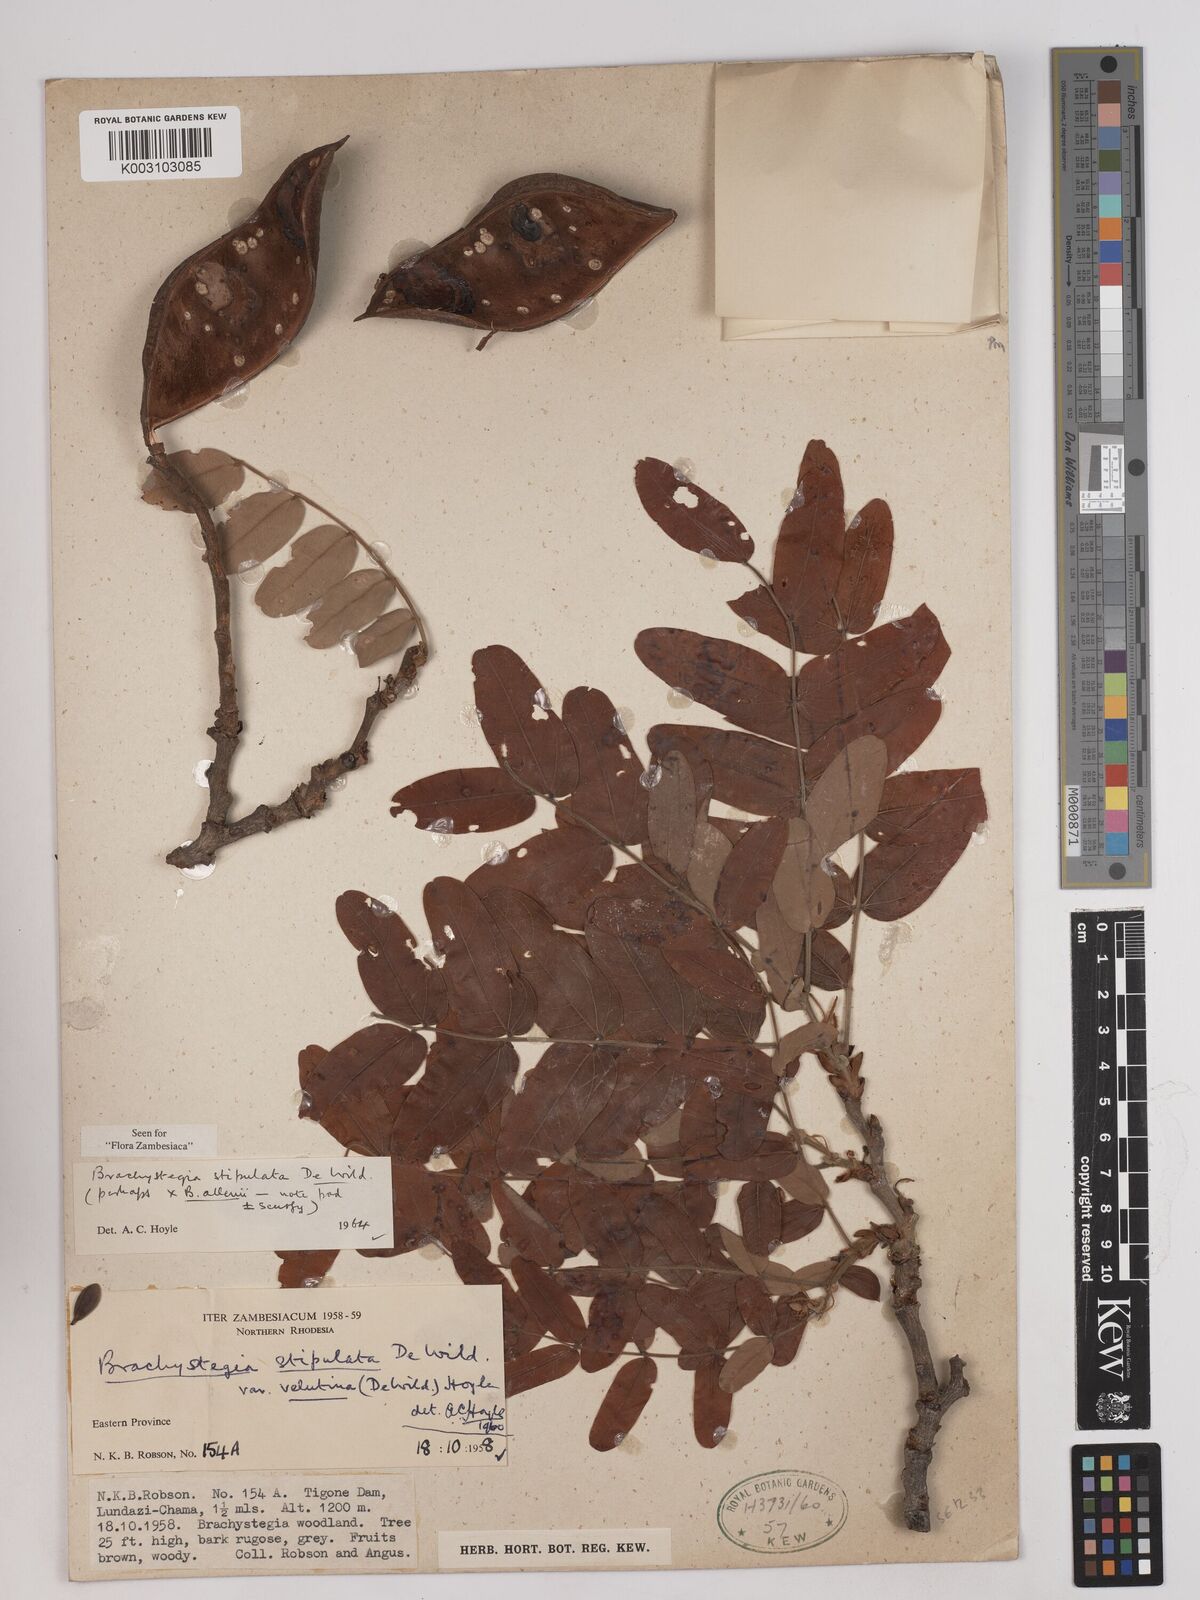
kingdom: Plantae
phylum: Tracheophyta
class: Magnoliopsida
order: Fabales
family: Fabaceae
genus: Brachystegia
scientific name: Brachystegia stipulata
